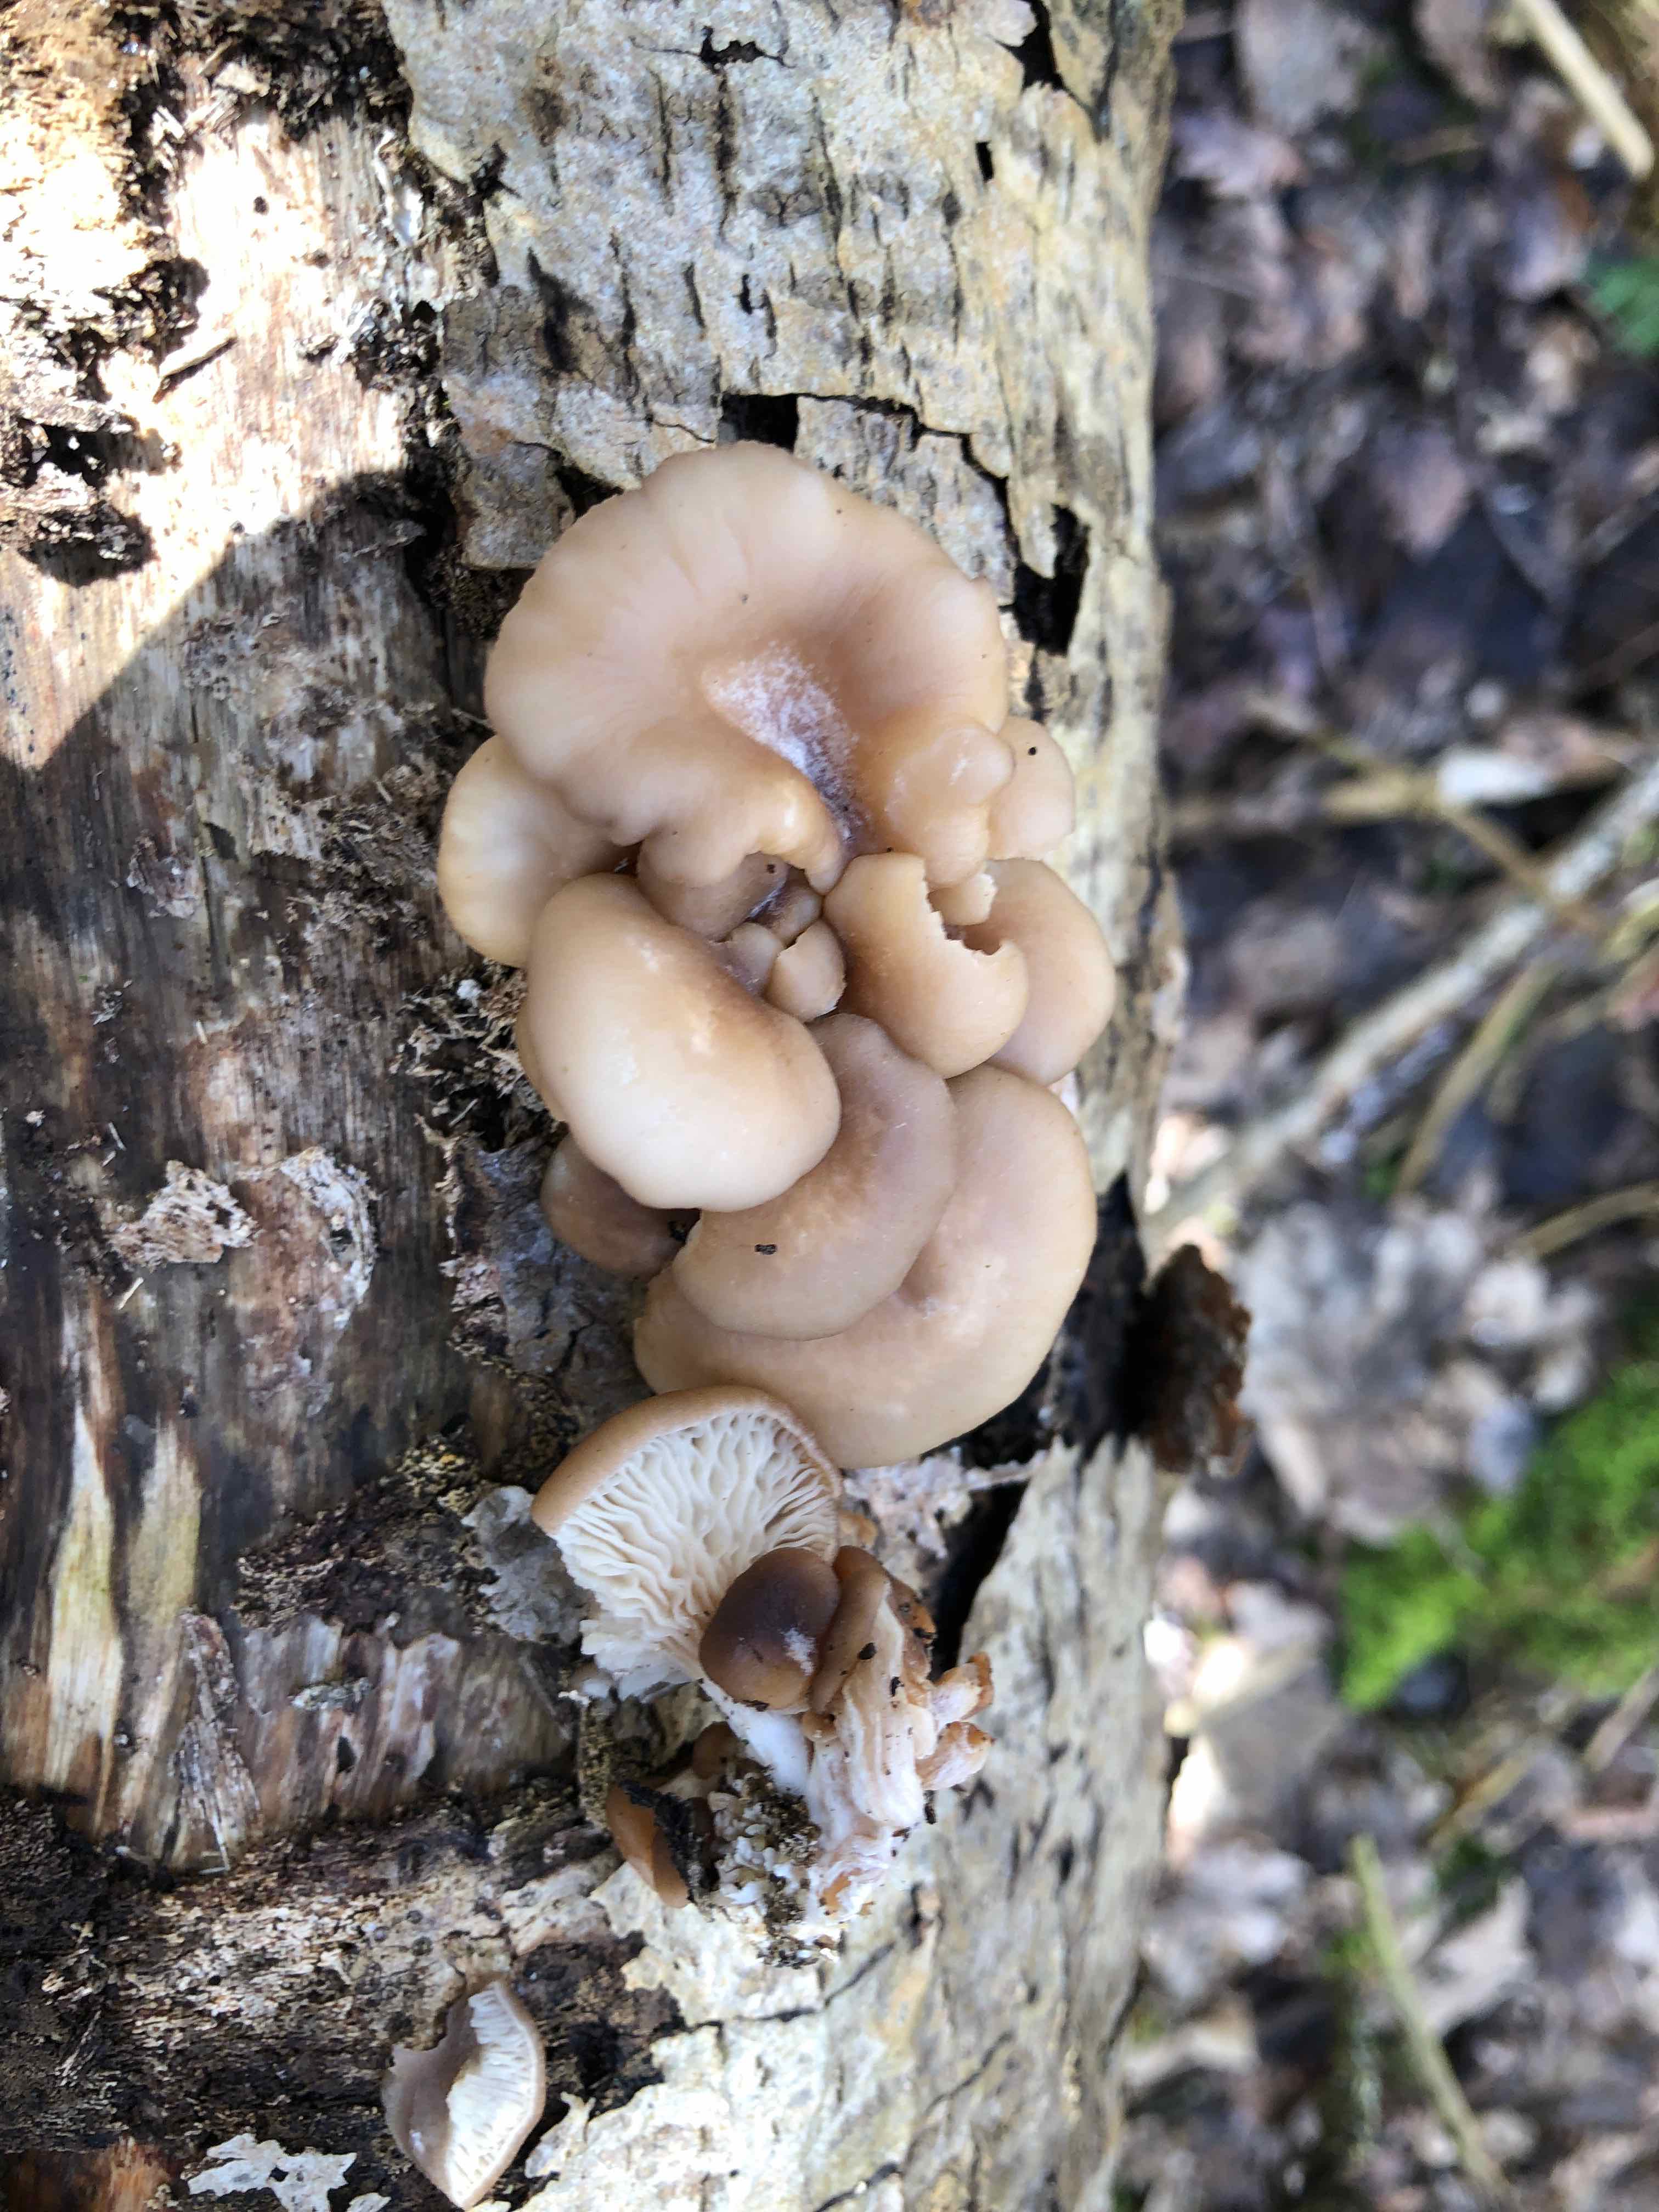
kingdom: Fungi
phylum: Basidiomycota
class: Agaricomycetes
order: Agaricales
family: Pleurotaceae
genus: Pleurotus
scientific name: Pleurotus ostreatus
